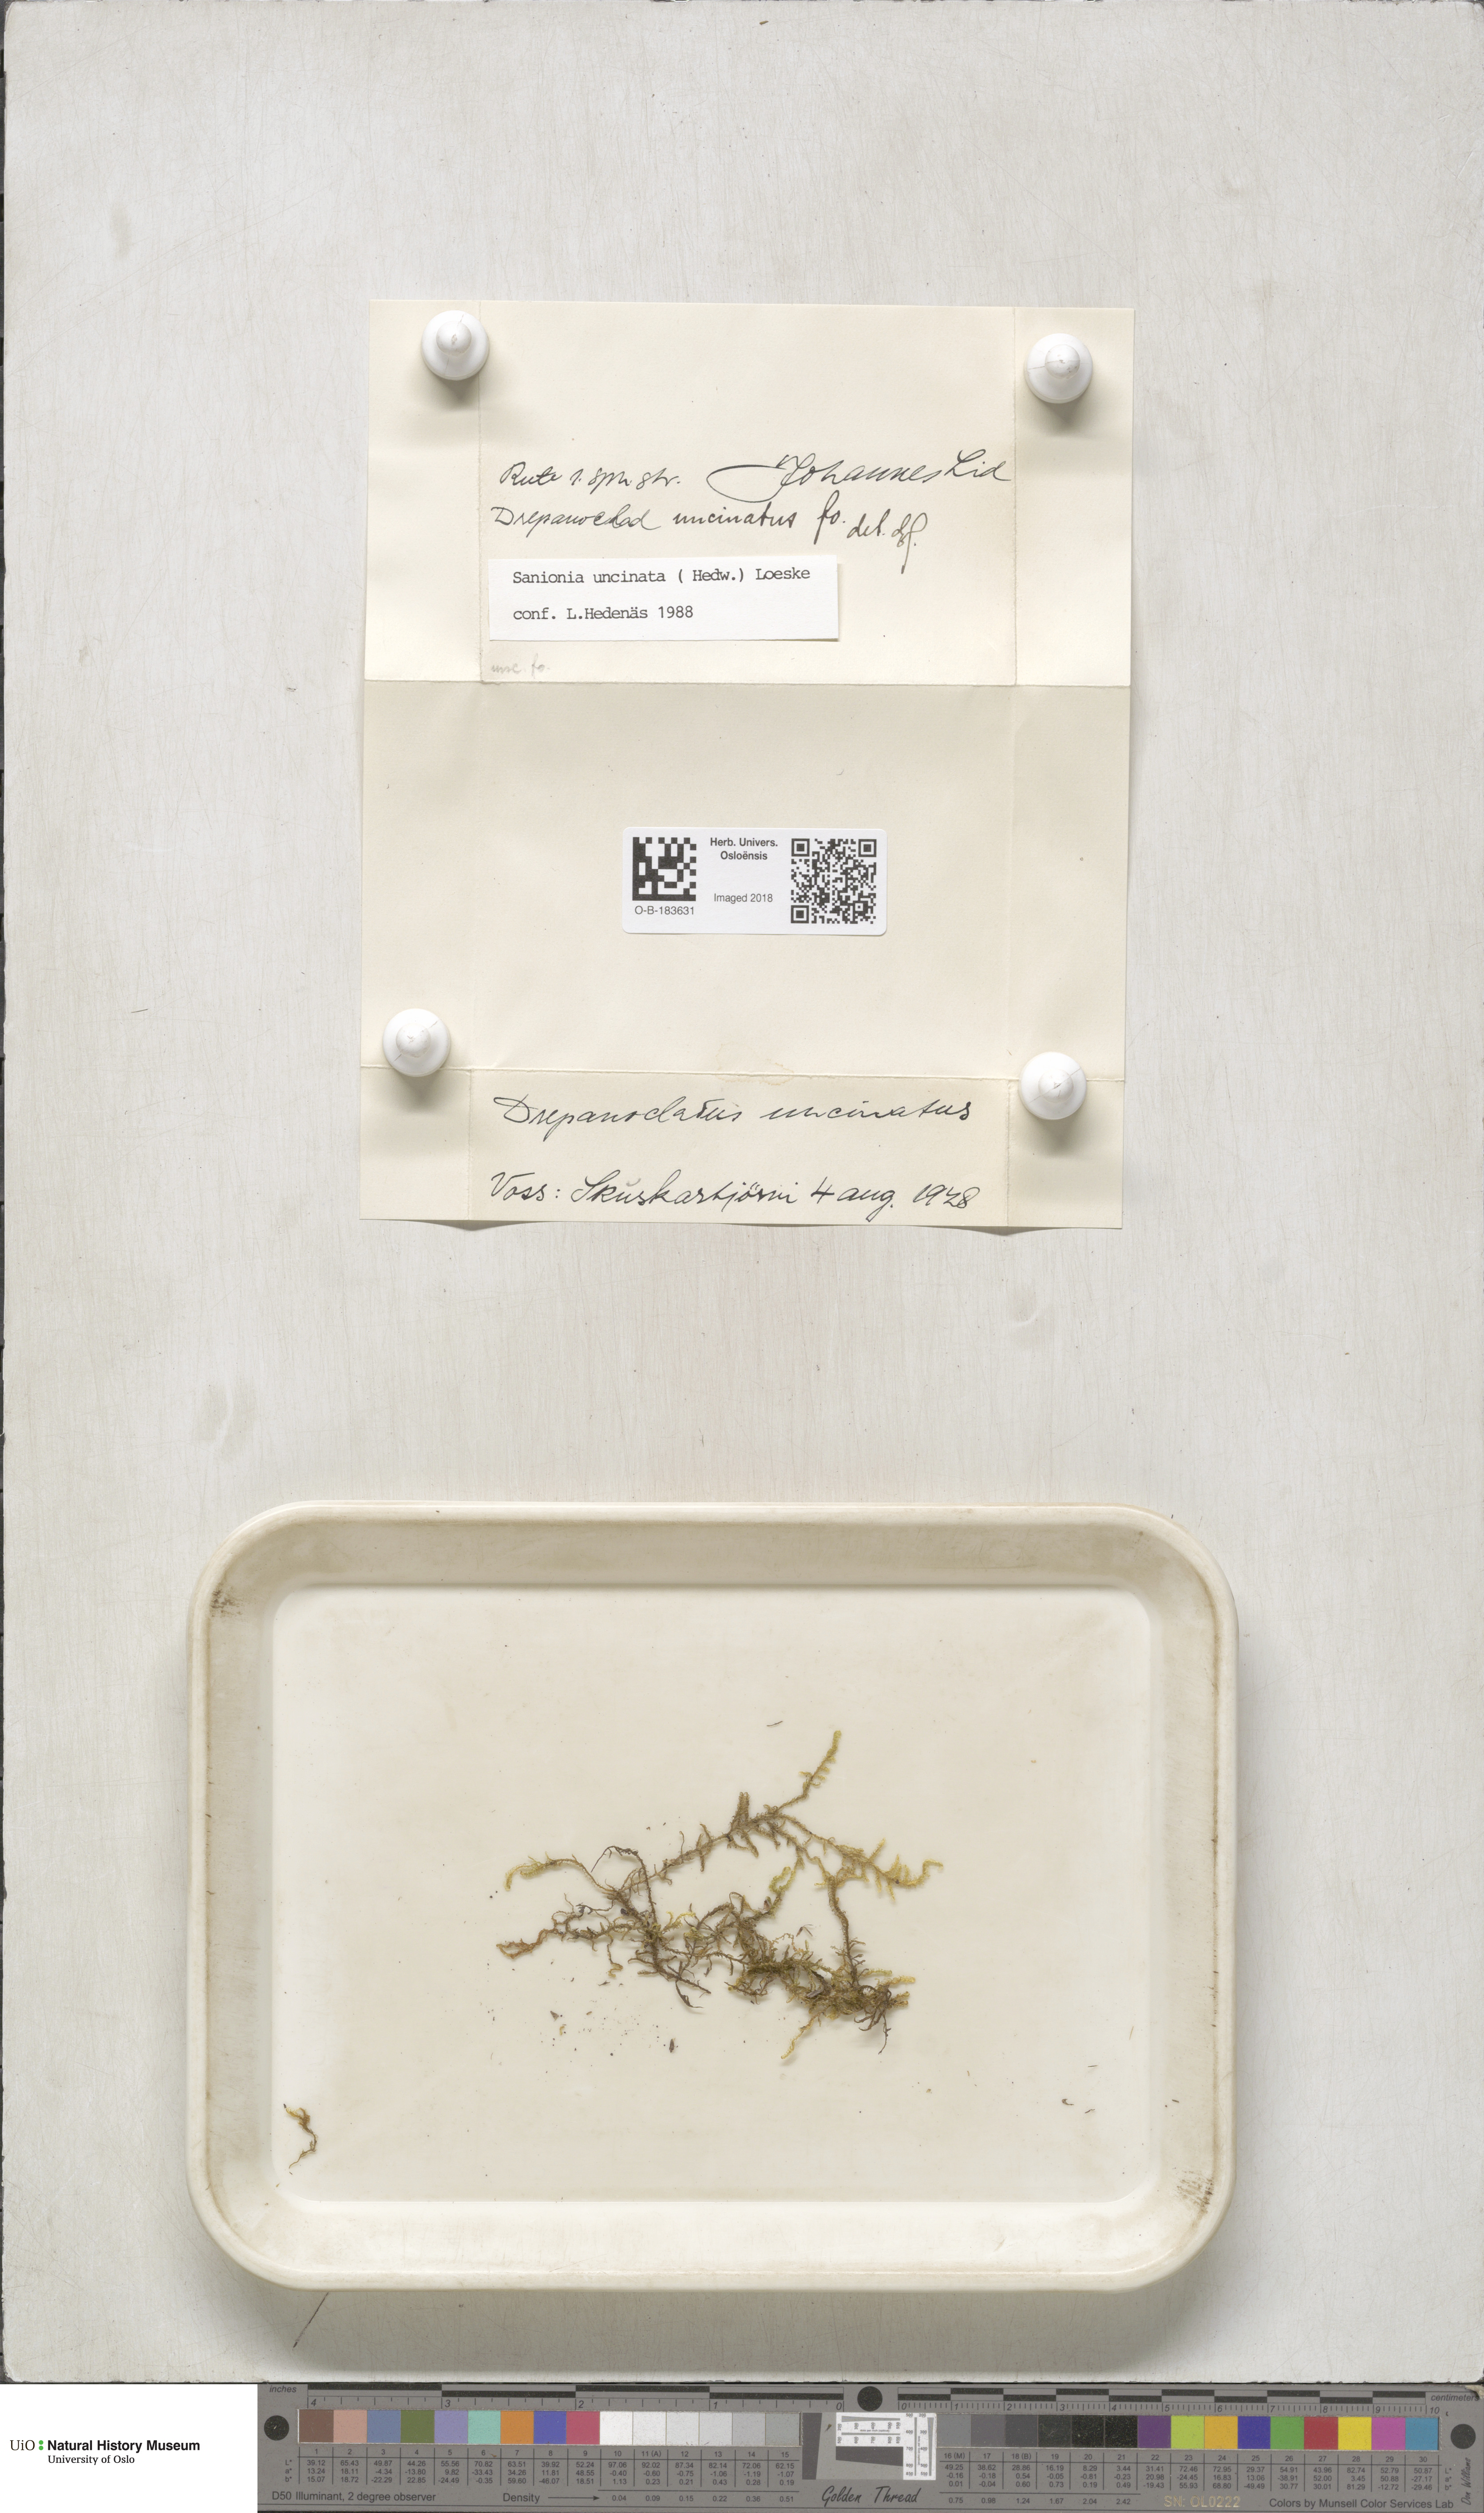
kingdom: Plantae
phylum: Bryophyta
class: Bryopsida
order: Hypnales
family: Scorpidiaceae
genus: Sanionia
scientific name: Sanionia uncinata
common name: Sickle moss
